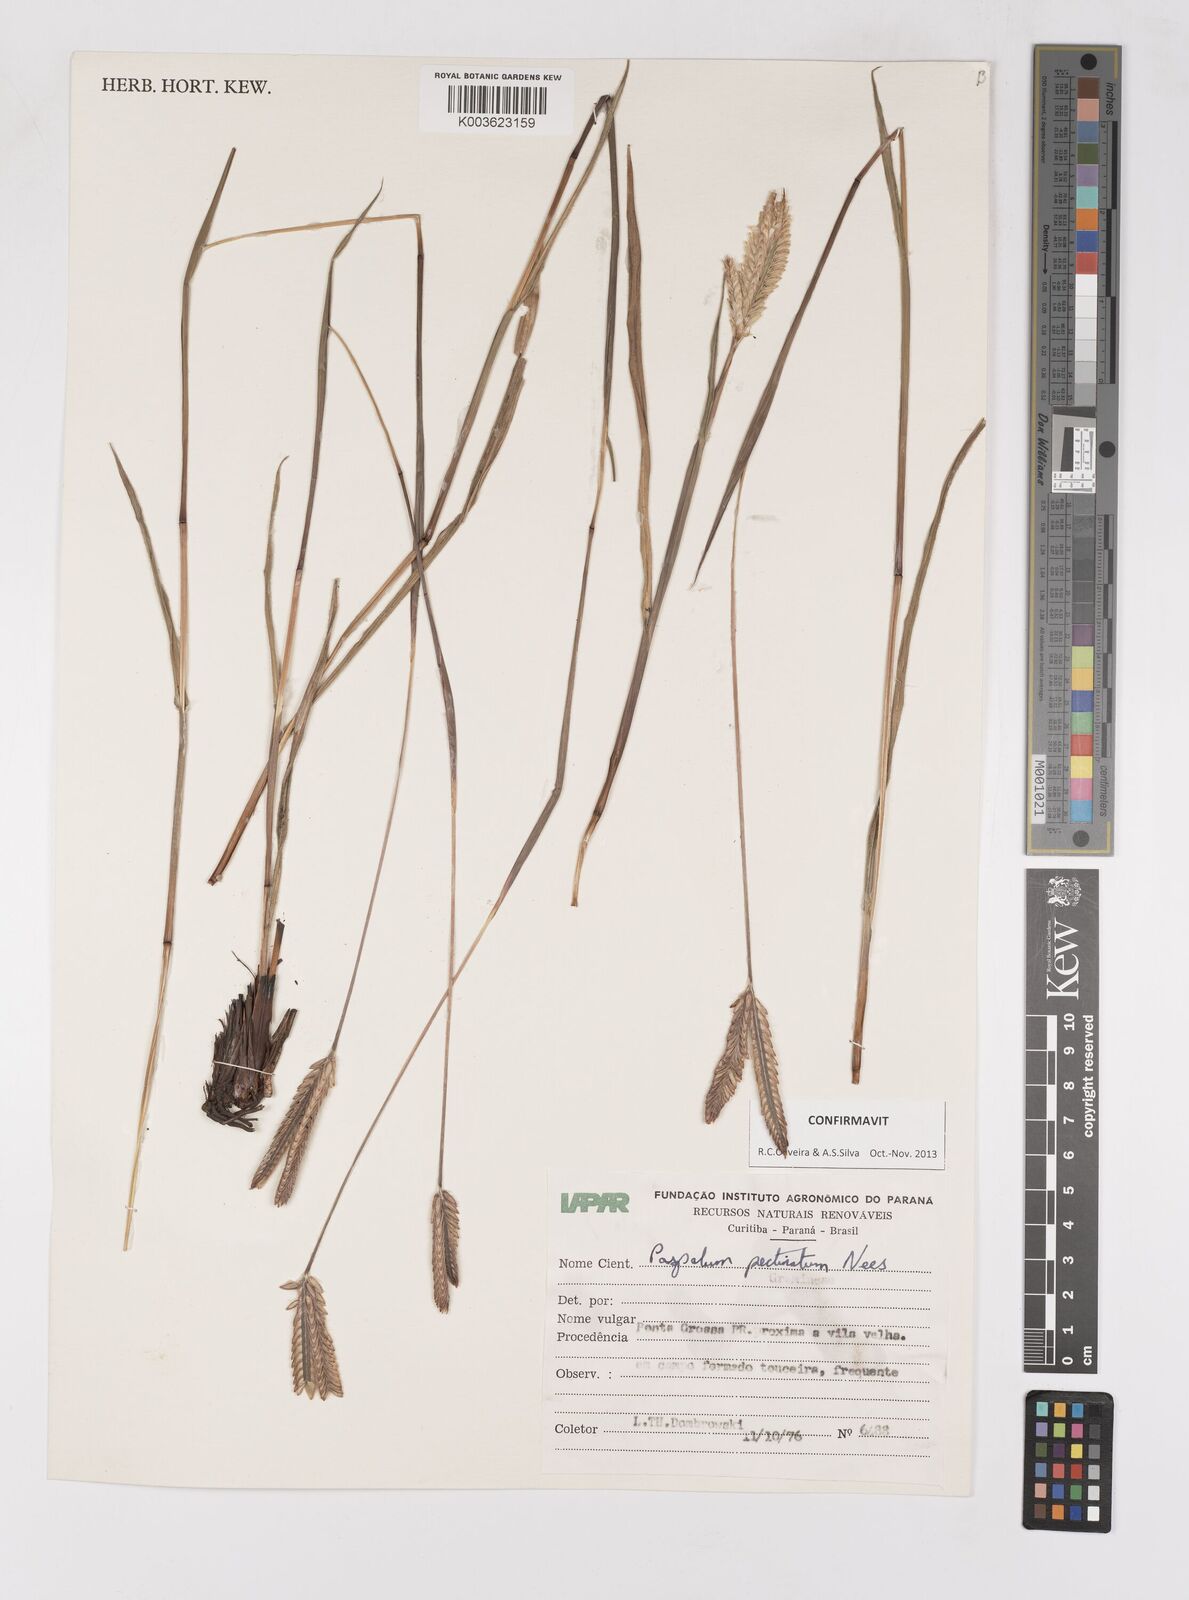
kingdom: Plantae
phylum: Tracheophyta
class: Liliopsida
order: Poales
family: Poaceae
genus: Paspalum
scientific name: Paspalum pectinatum
